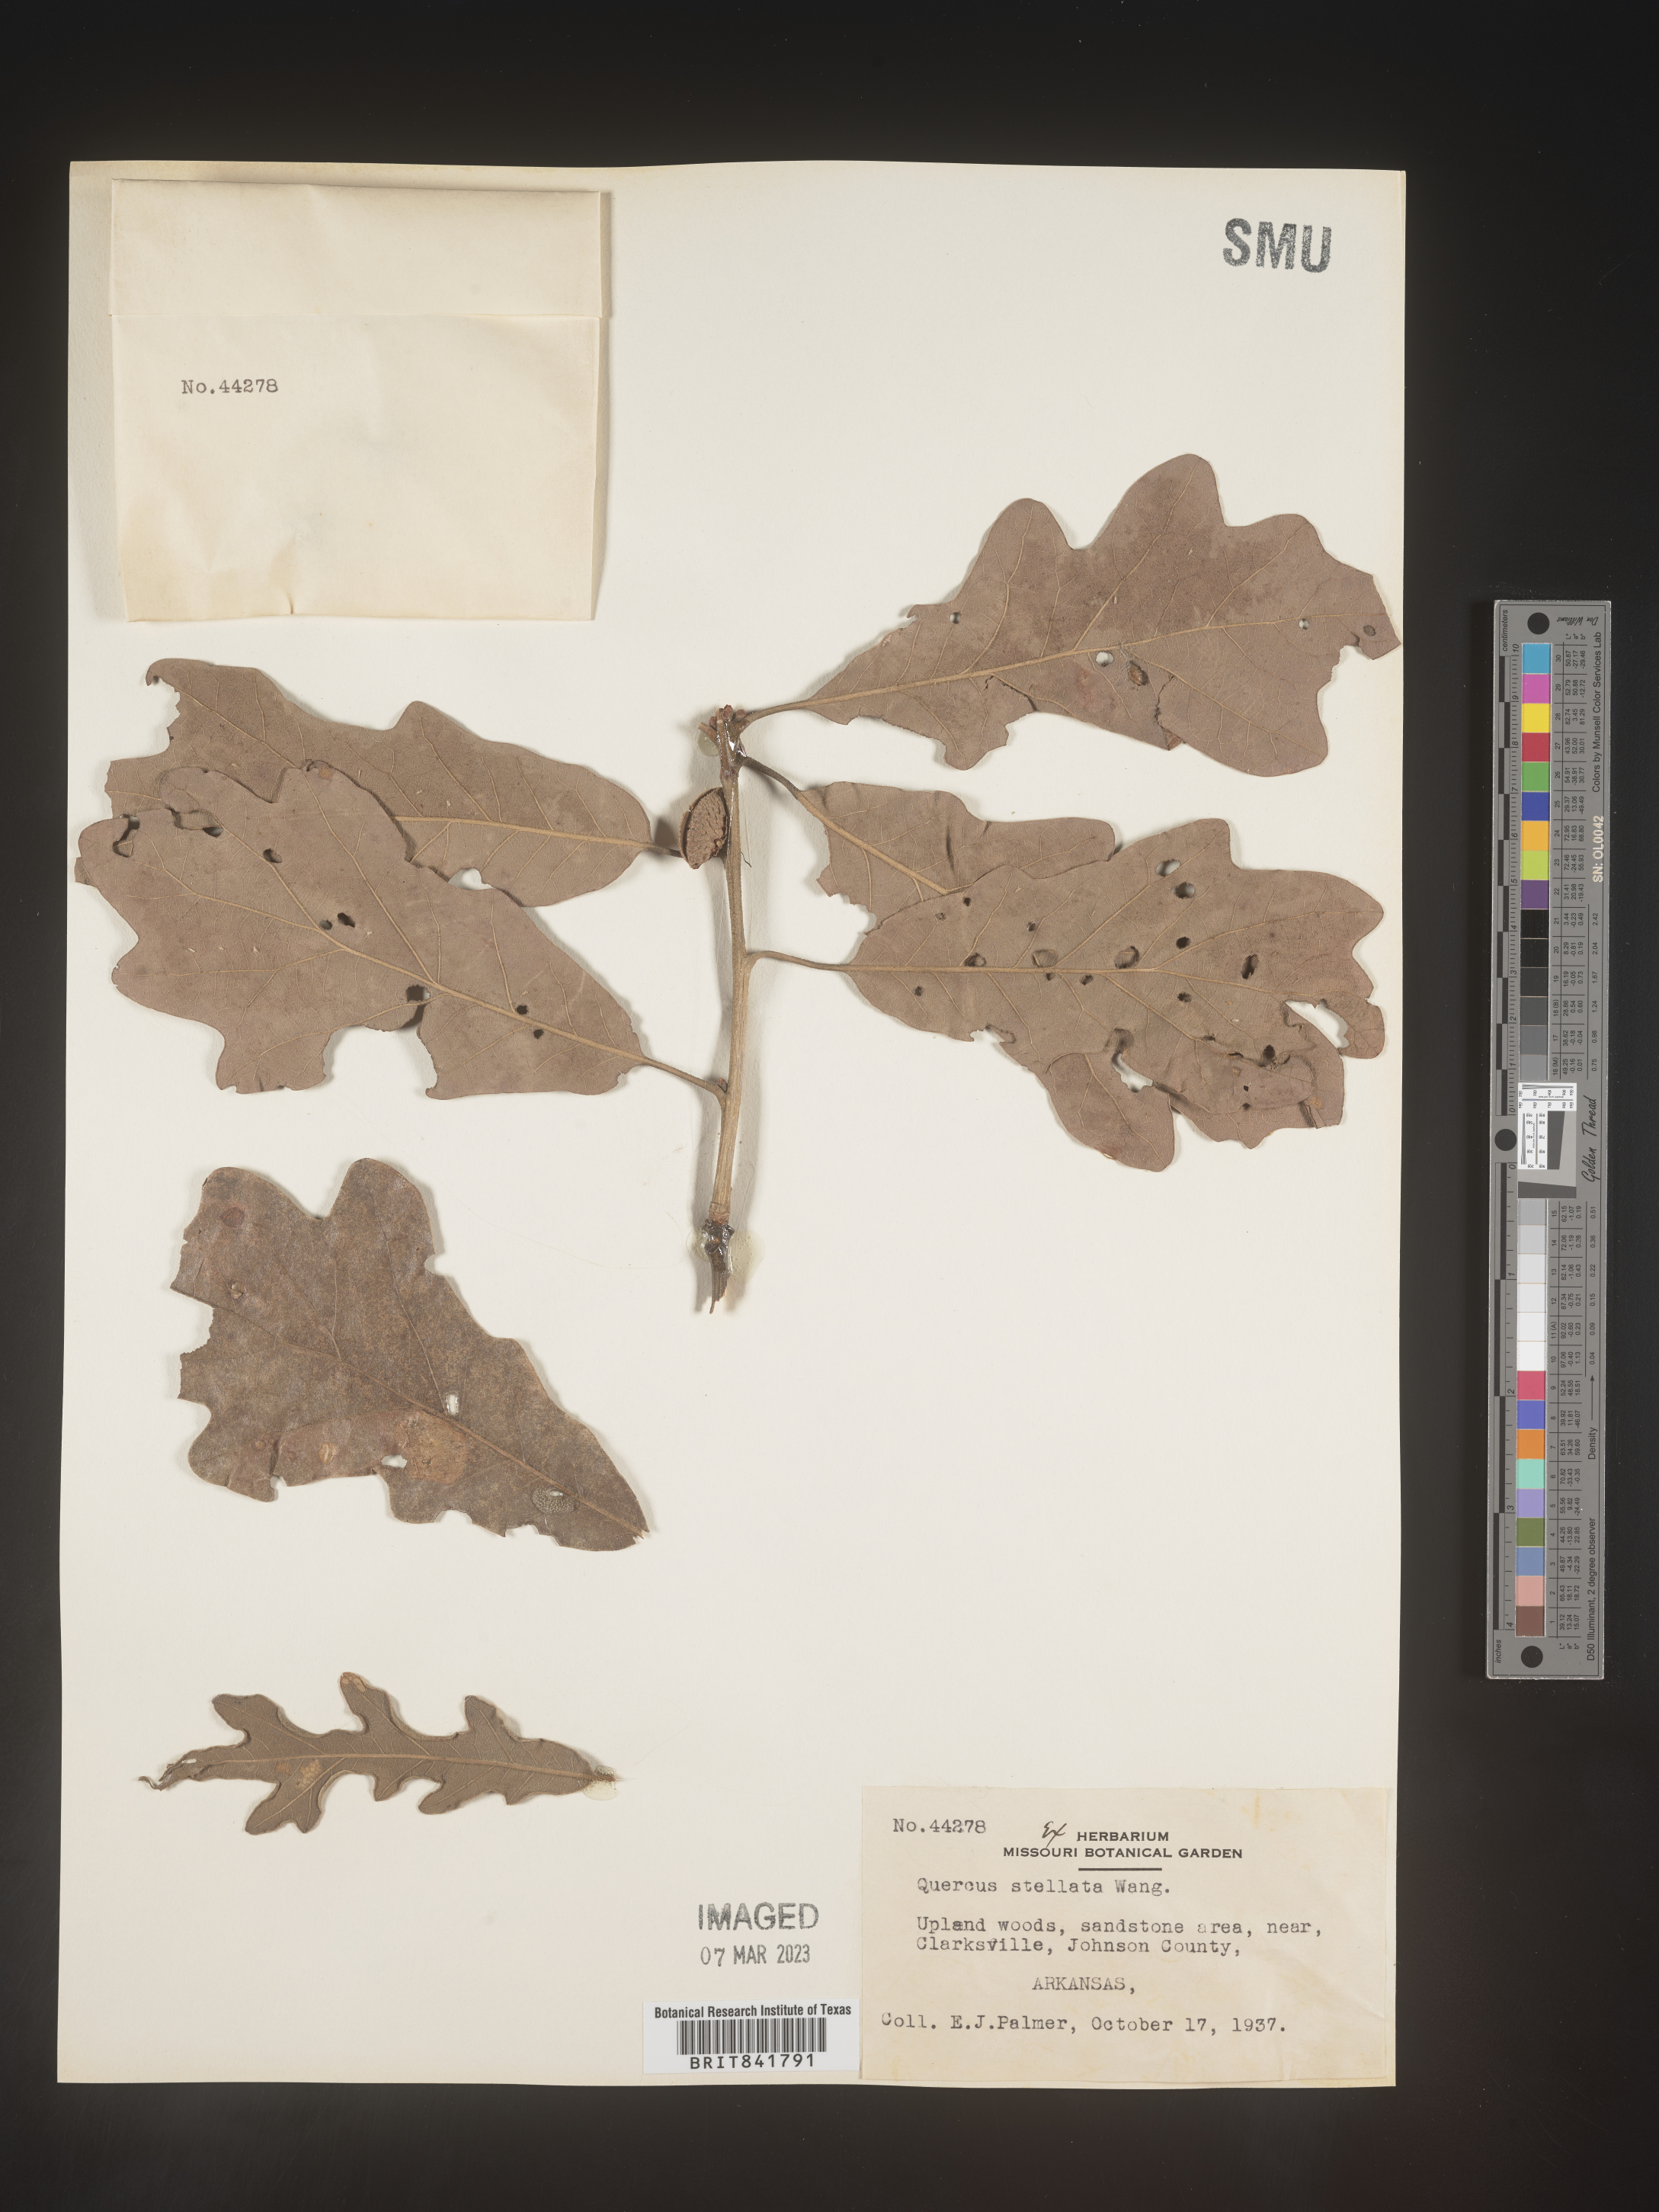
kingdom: Plantae
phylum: Tracheophyta
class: Magnoliopsida
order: Fagales
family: Fagaceae
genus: Quercus
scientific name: Quercus stellata
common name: Post oak
